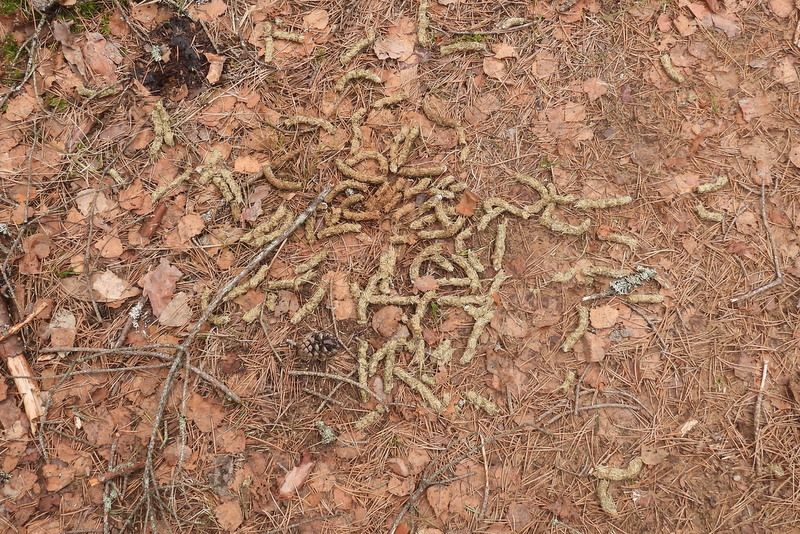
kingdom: Animalia
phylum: Chordata
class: Aves
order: Galliformes
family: Phasianidae
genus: Tetrao
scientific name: Tetrao urogallus
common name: Western capercaillie
